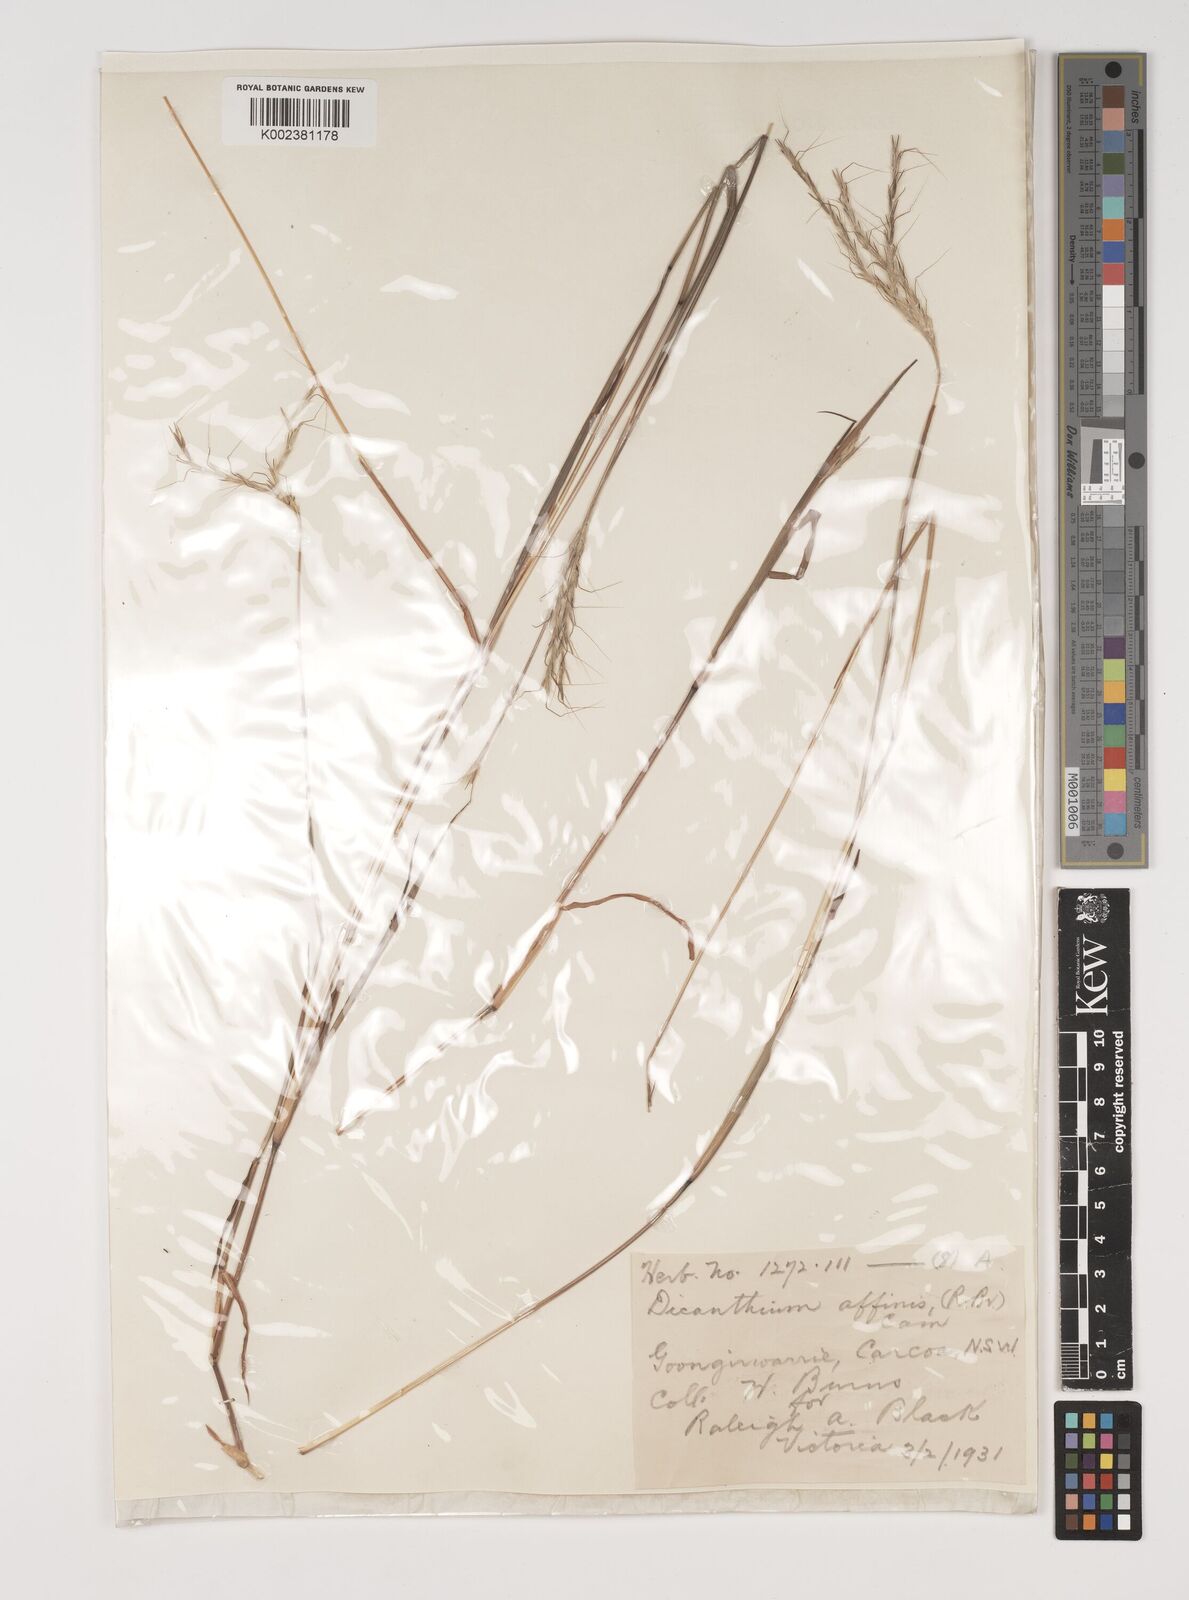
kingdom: Plantae
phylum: Tracheophyta
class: Liliopsida
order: Poales
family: Poaceae
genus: Bothriochloa
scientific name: Bothriochloa macra
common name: Pitted beard grass
